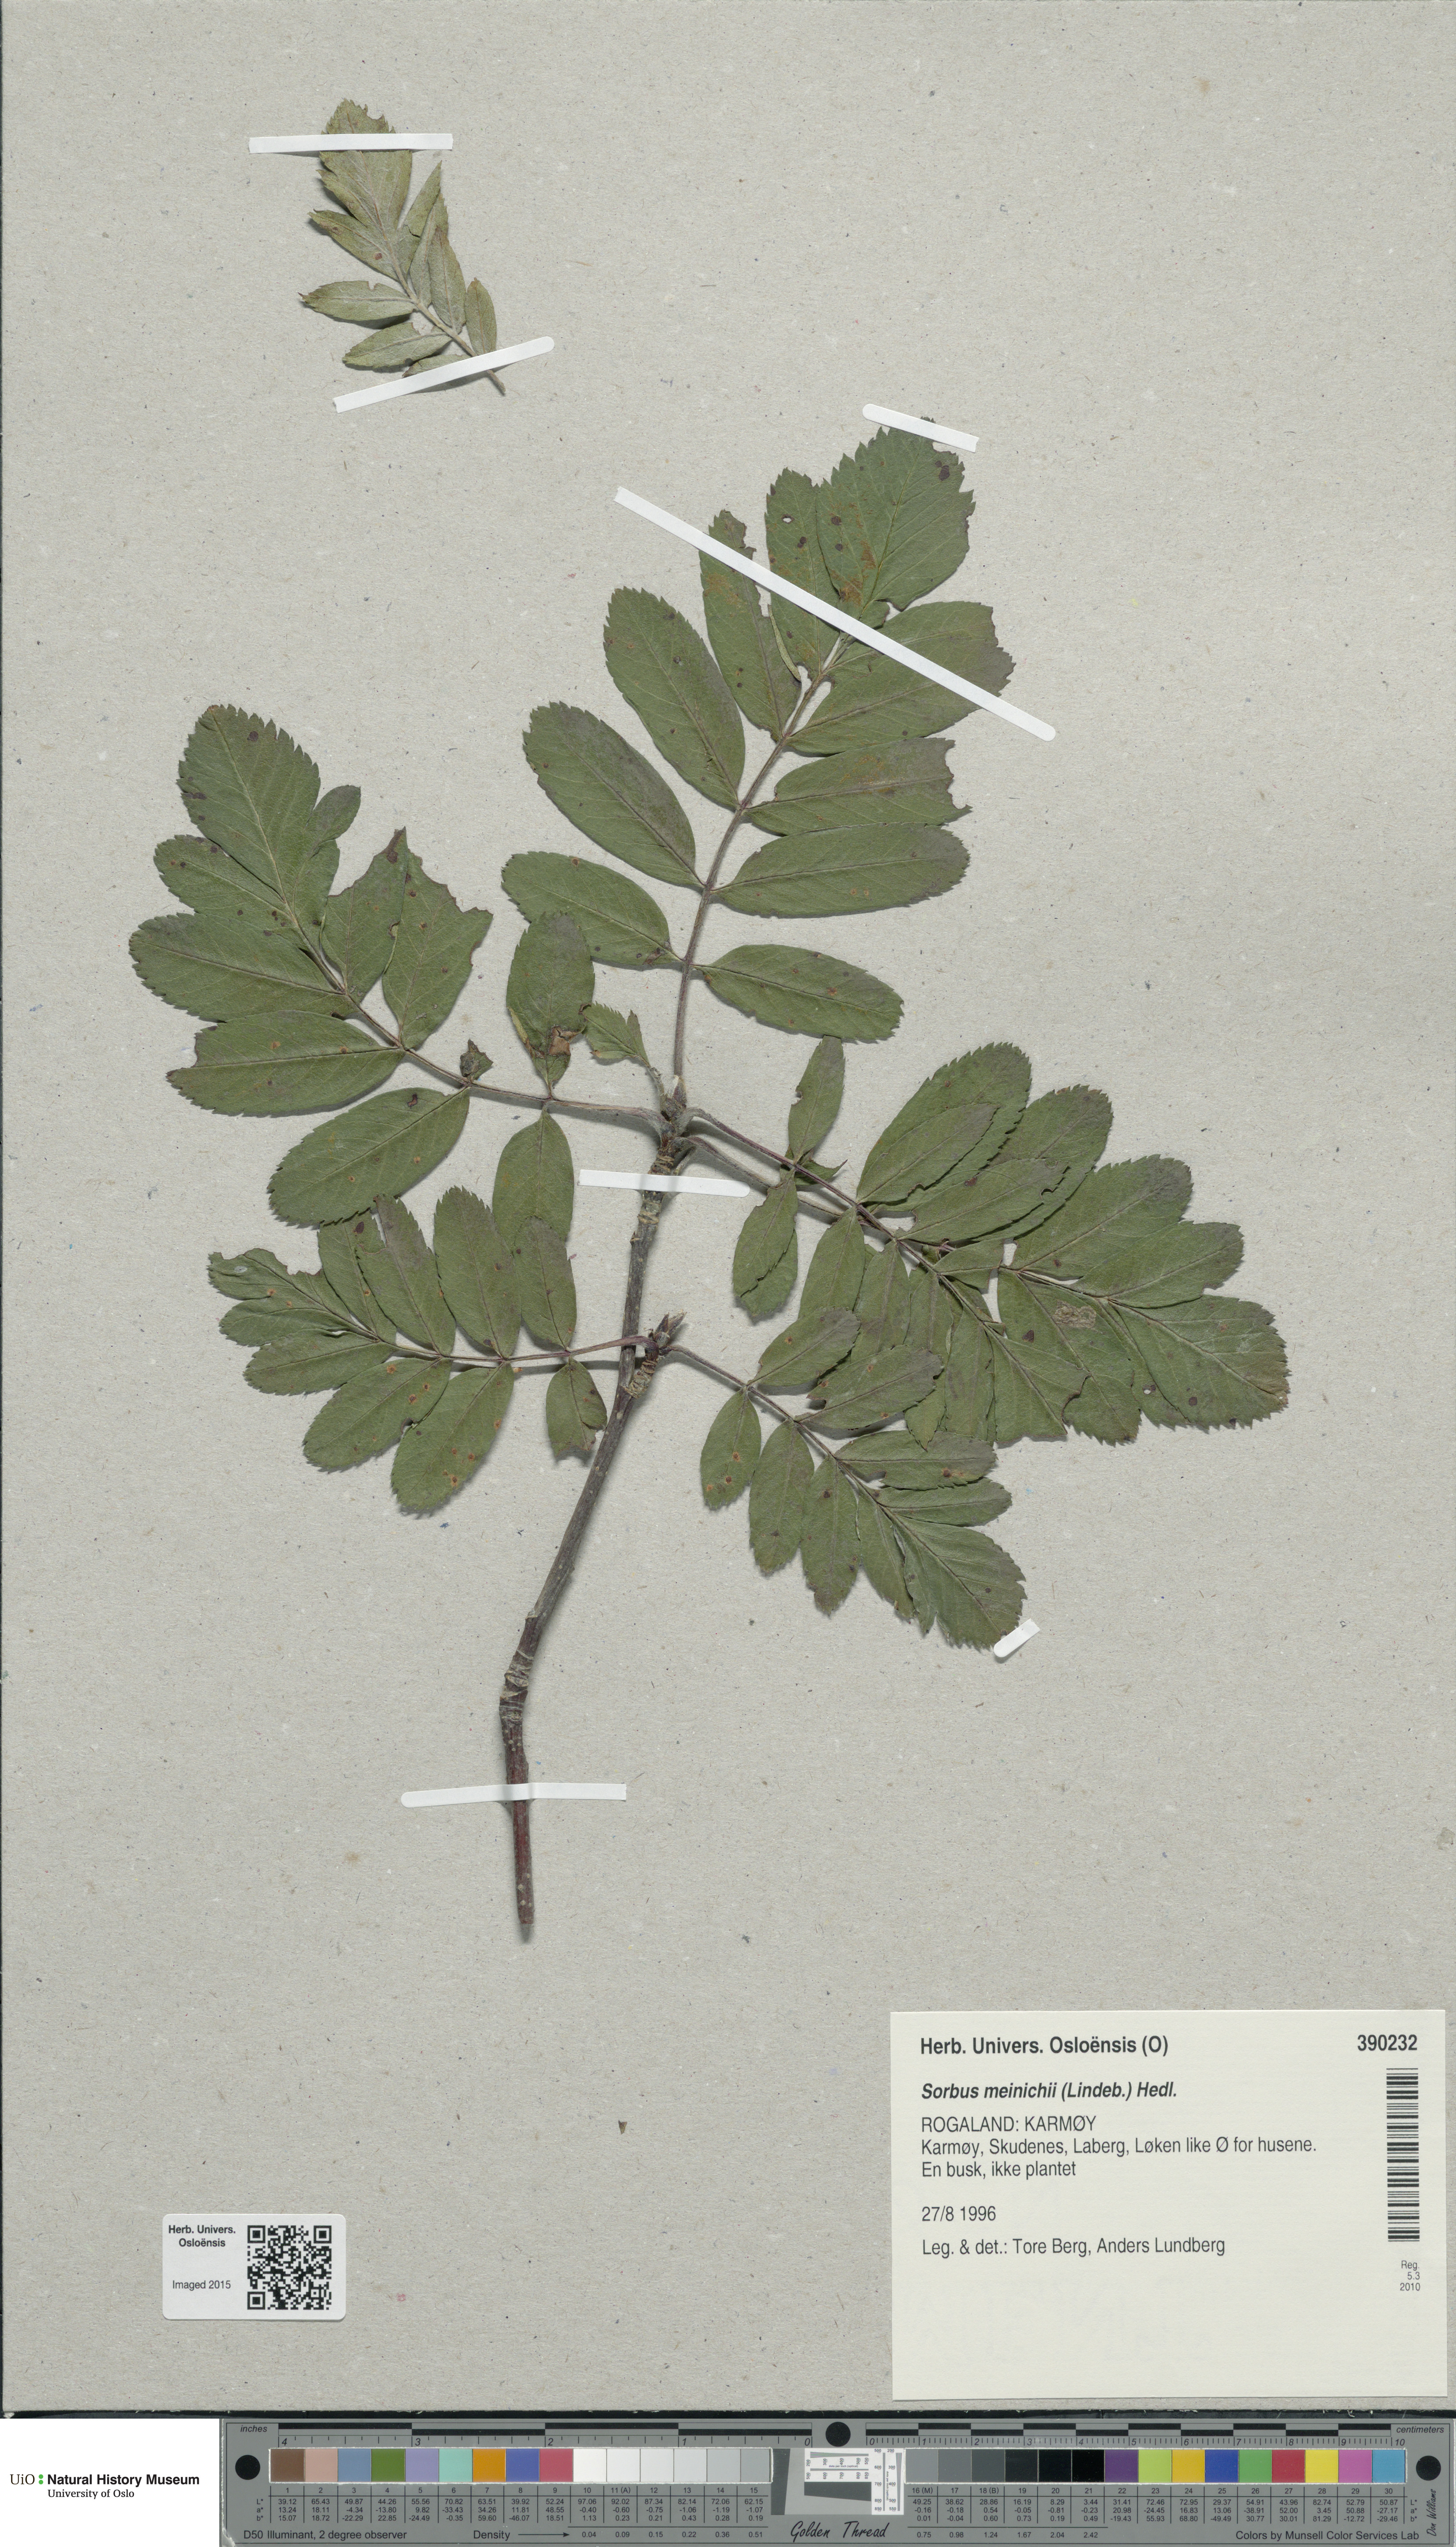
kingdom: Plantae
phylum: Tracheophyta
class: Magnoliopsida
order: Rosales
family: Rosaceae
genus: Hedlundia
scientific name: Hedlundia meinichii
